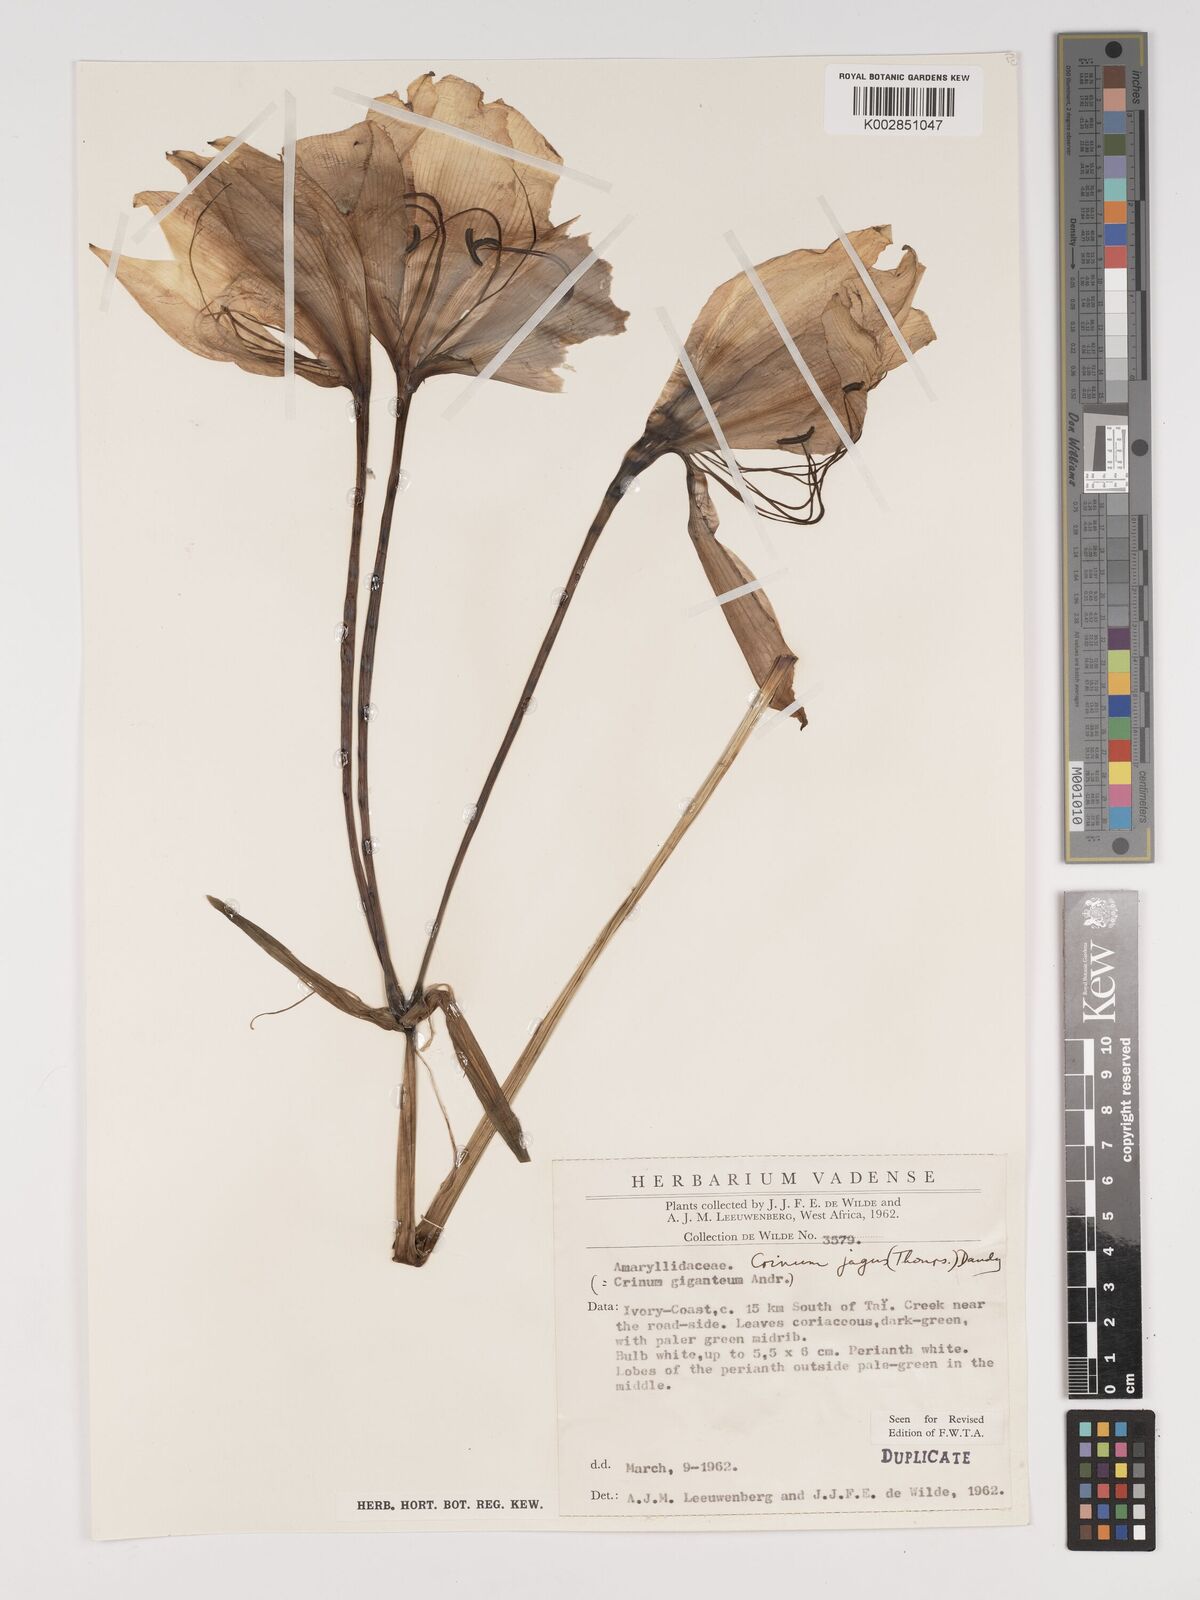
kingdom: Plantae
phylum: Tracheophyta
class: Liliopsida
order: Asparagales
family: Amaryllidaceae
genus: Crinum
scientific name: Crinum jagus
